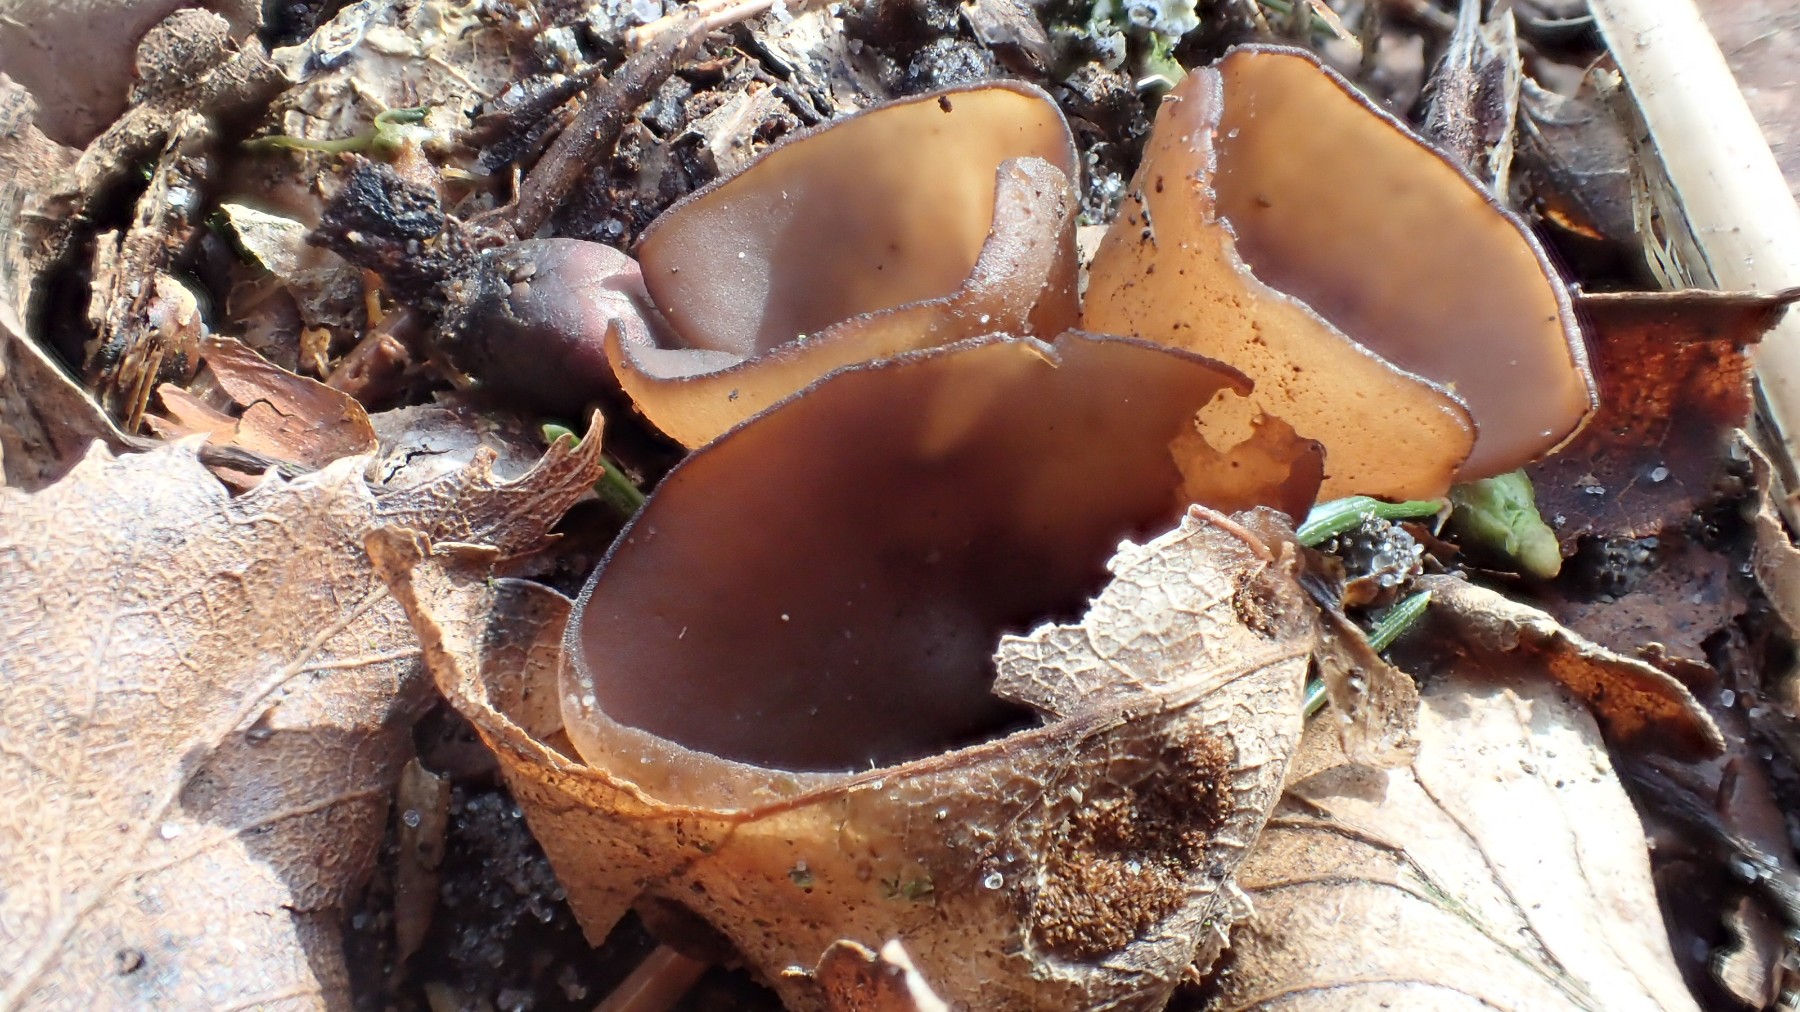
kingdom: Fungi
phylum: Ascomycota
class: Leotiomycetes
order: Helotiales
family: Sclerotiniaceae
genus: Dumontinia
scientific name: Dumontinia tuberosa
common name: anemone-knoldskive
